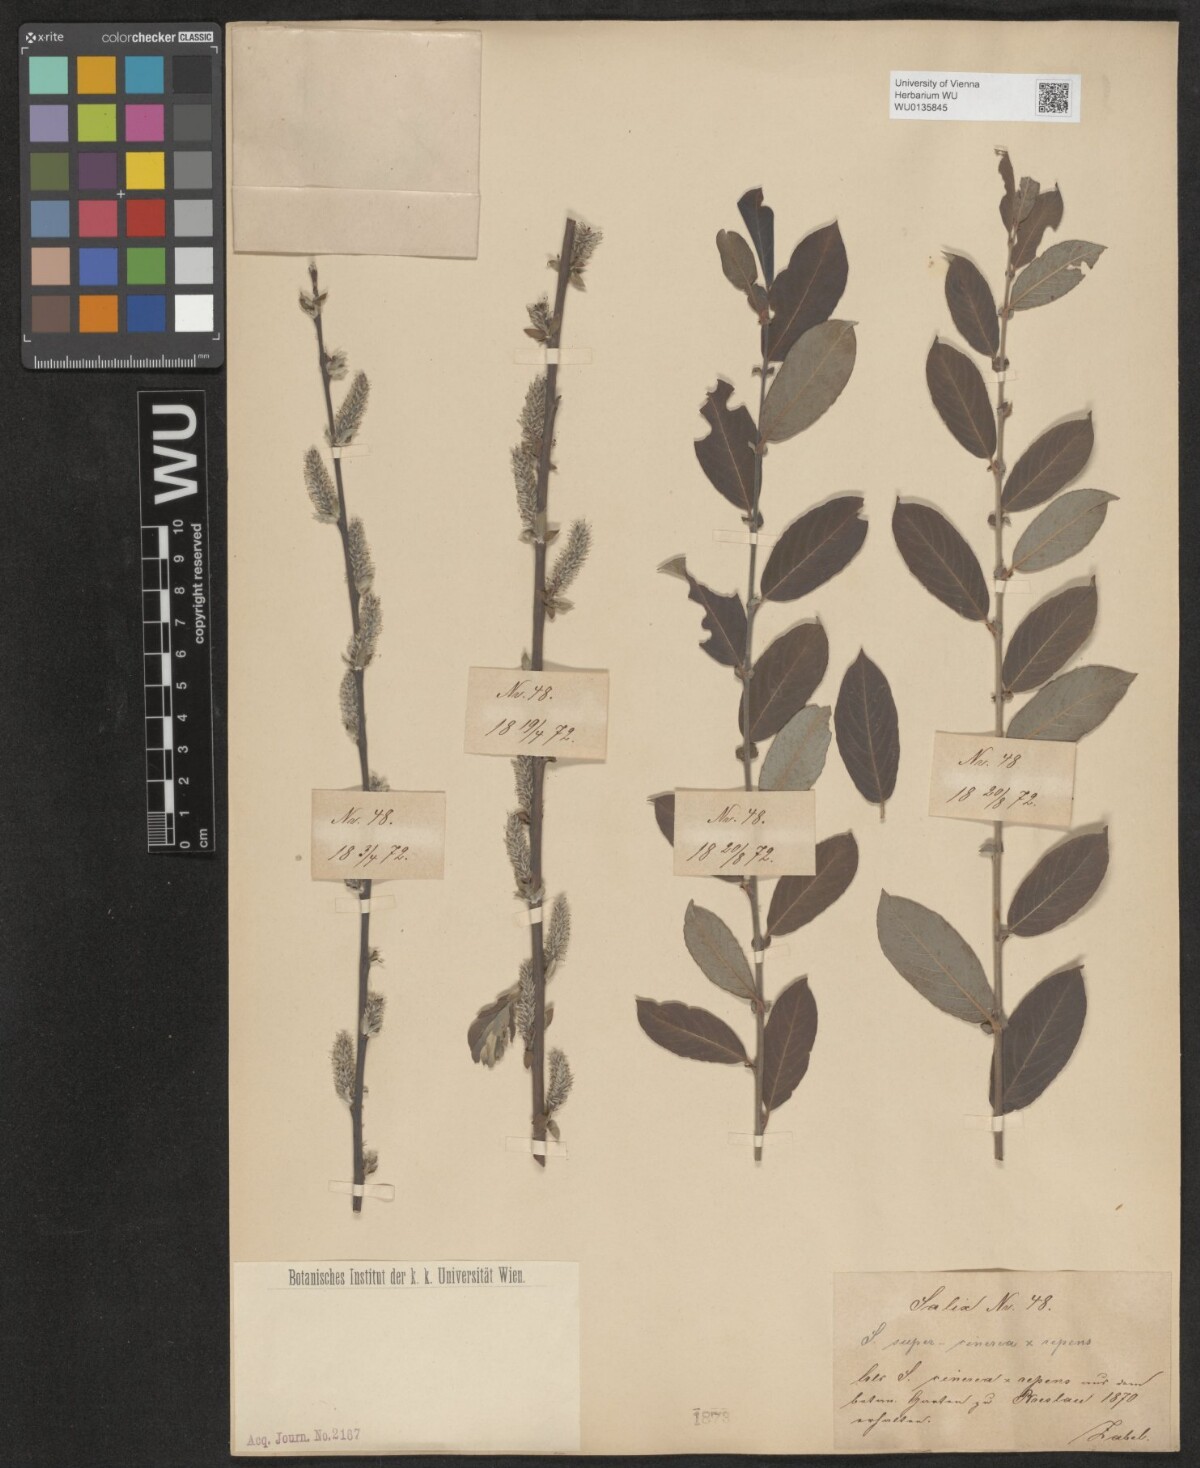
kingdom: Plantae
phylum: Tracheophyta
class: Magnoliopsida
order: Malpighiales
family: Salicaceae
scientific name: Salicaceae
